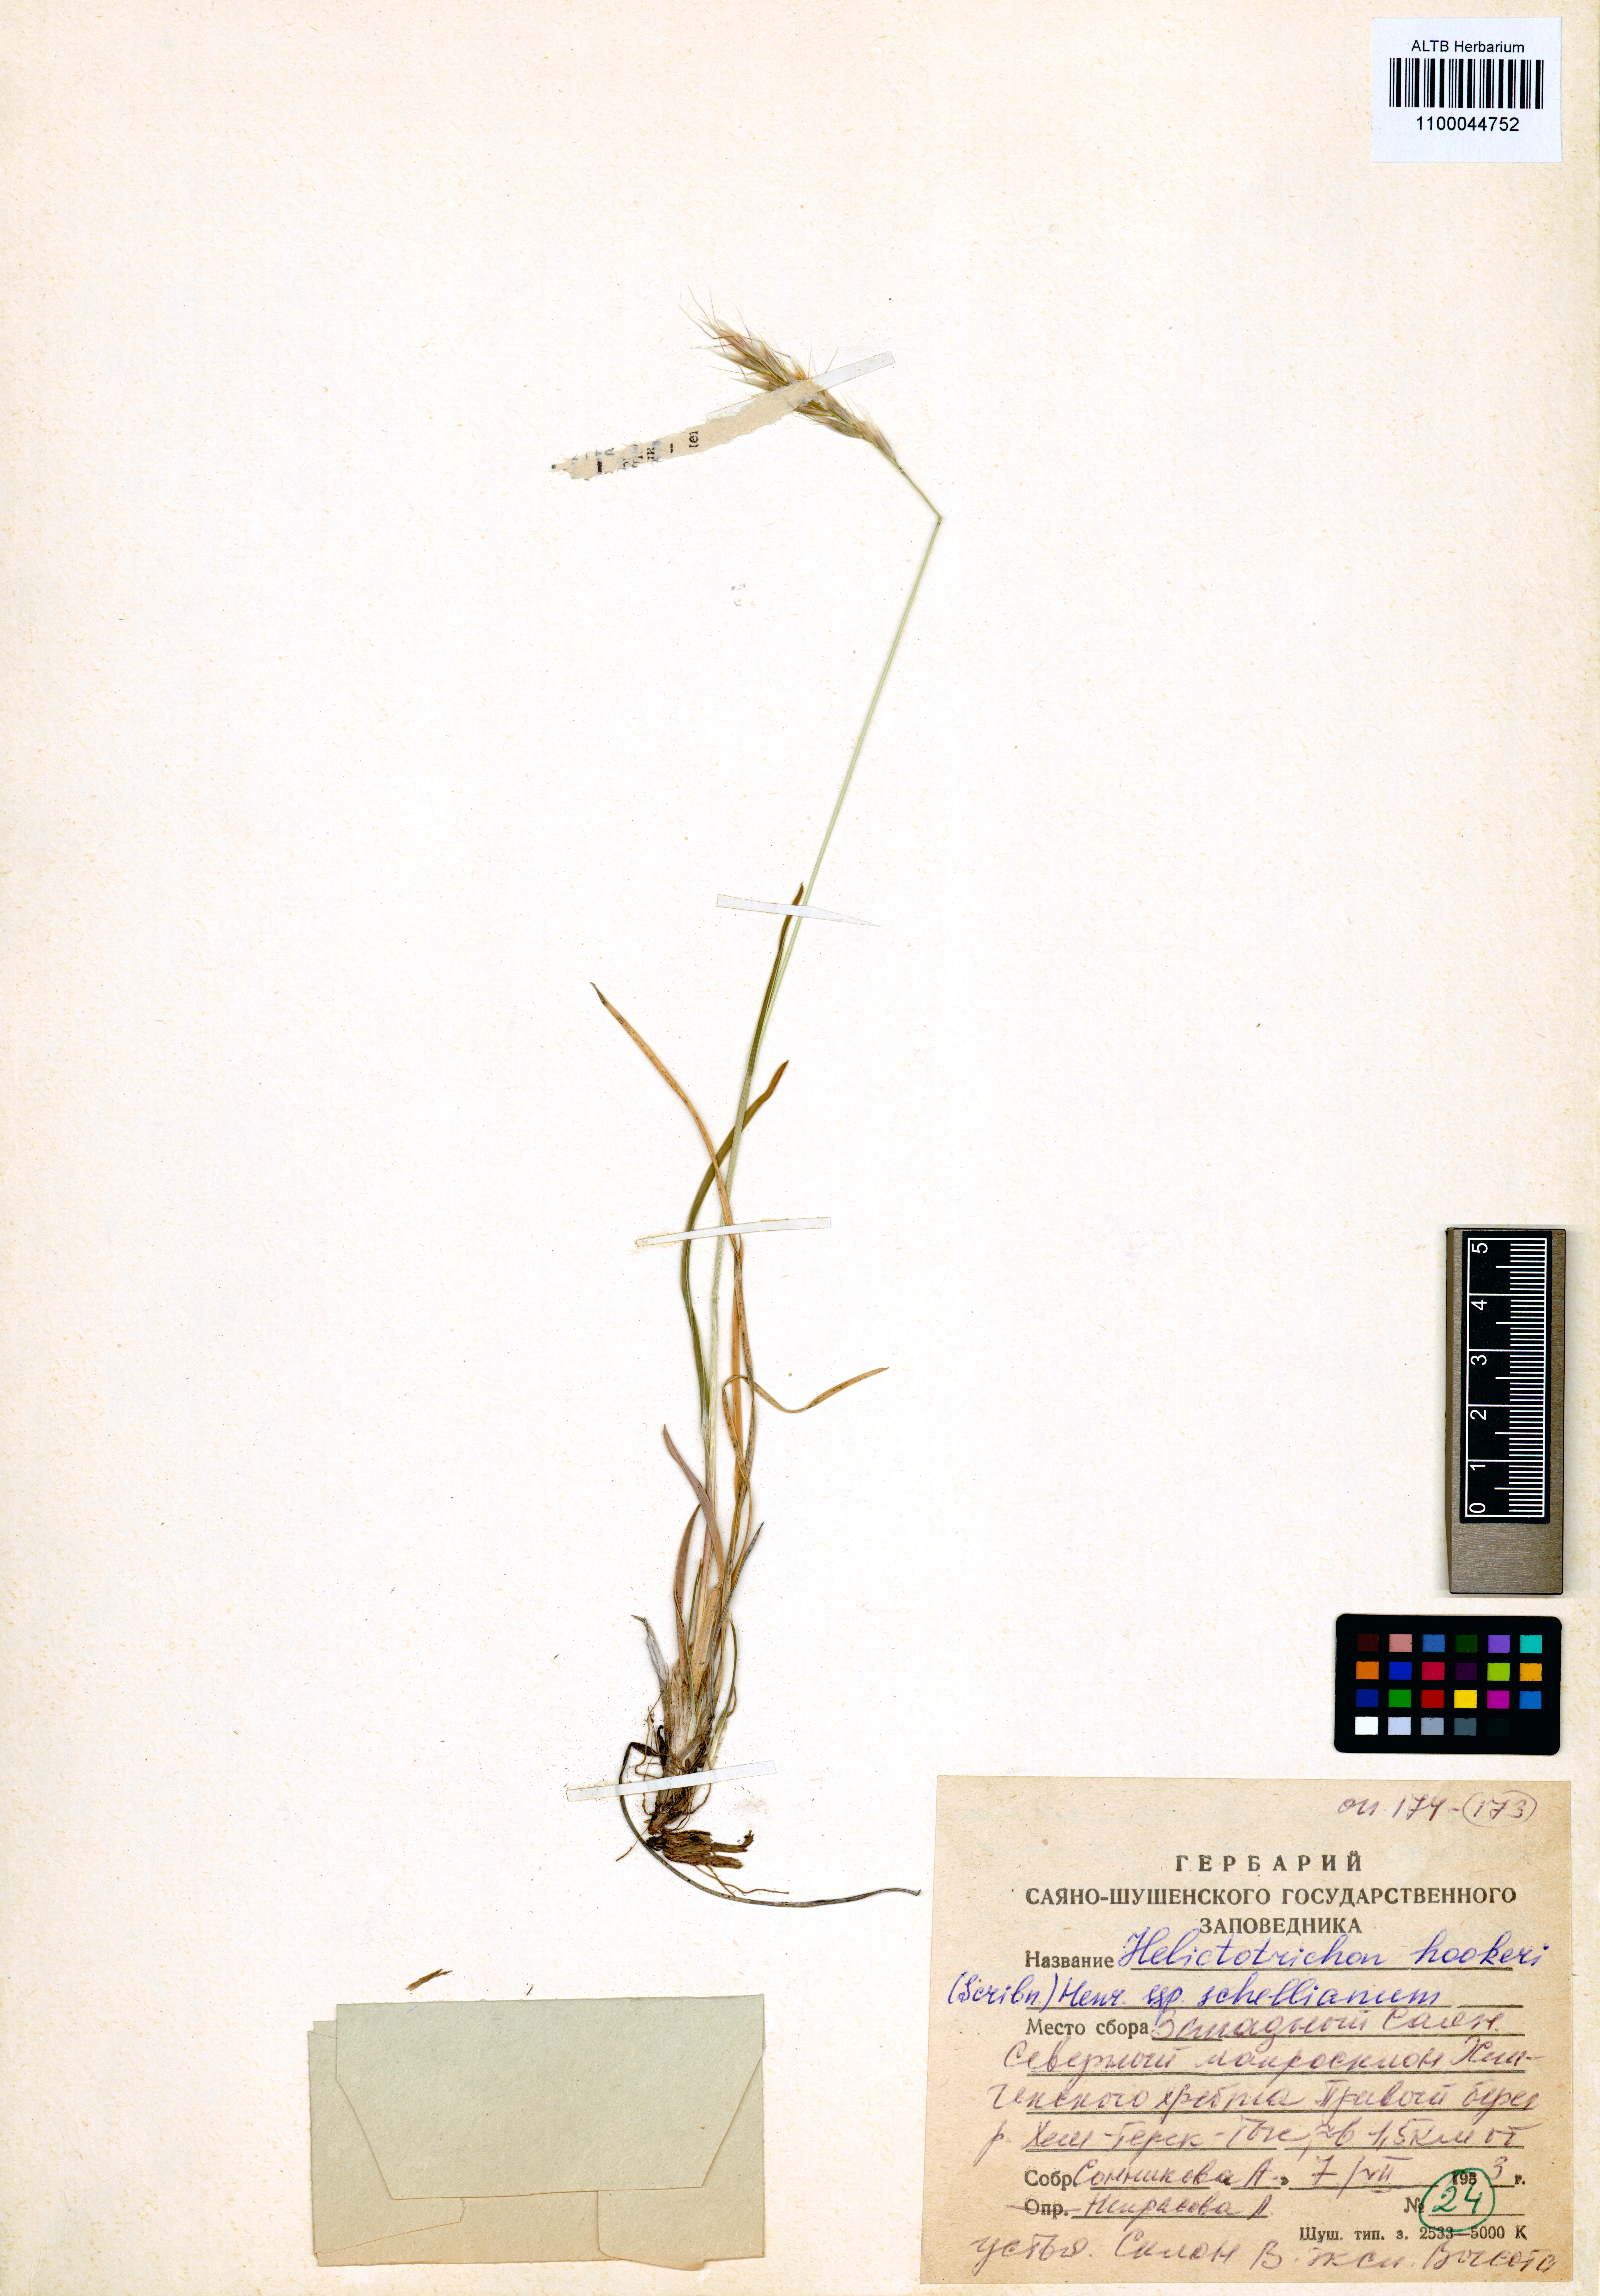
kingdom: Plantae
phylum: Tracheophyta
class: Liliopsida
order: Poales
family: Poaceae
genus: Helictochloa
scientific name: Helictochloa hookeri
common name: Hooker's alpine oatgrass
